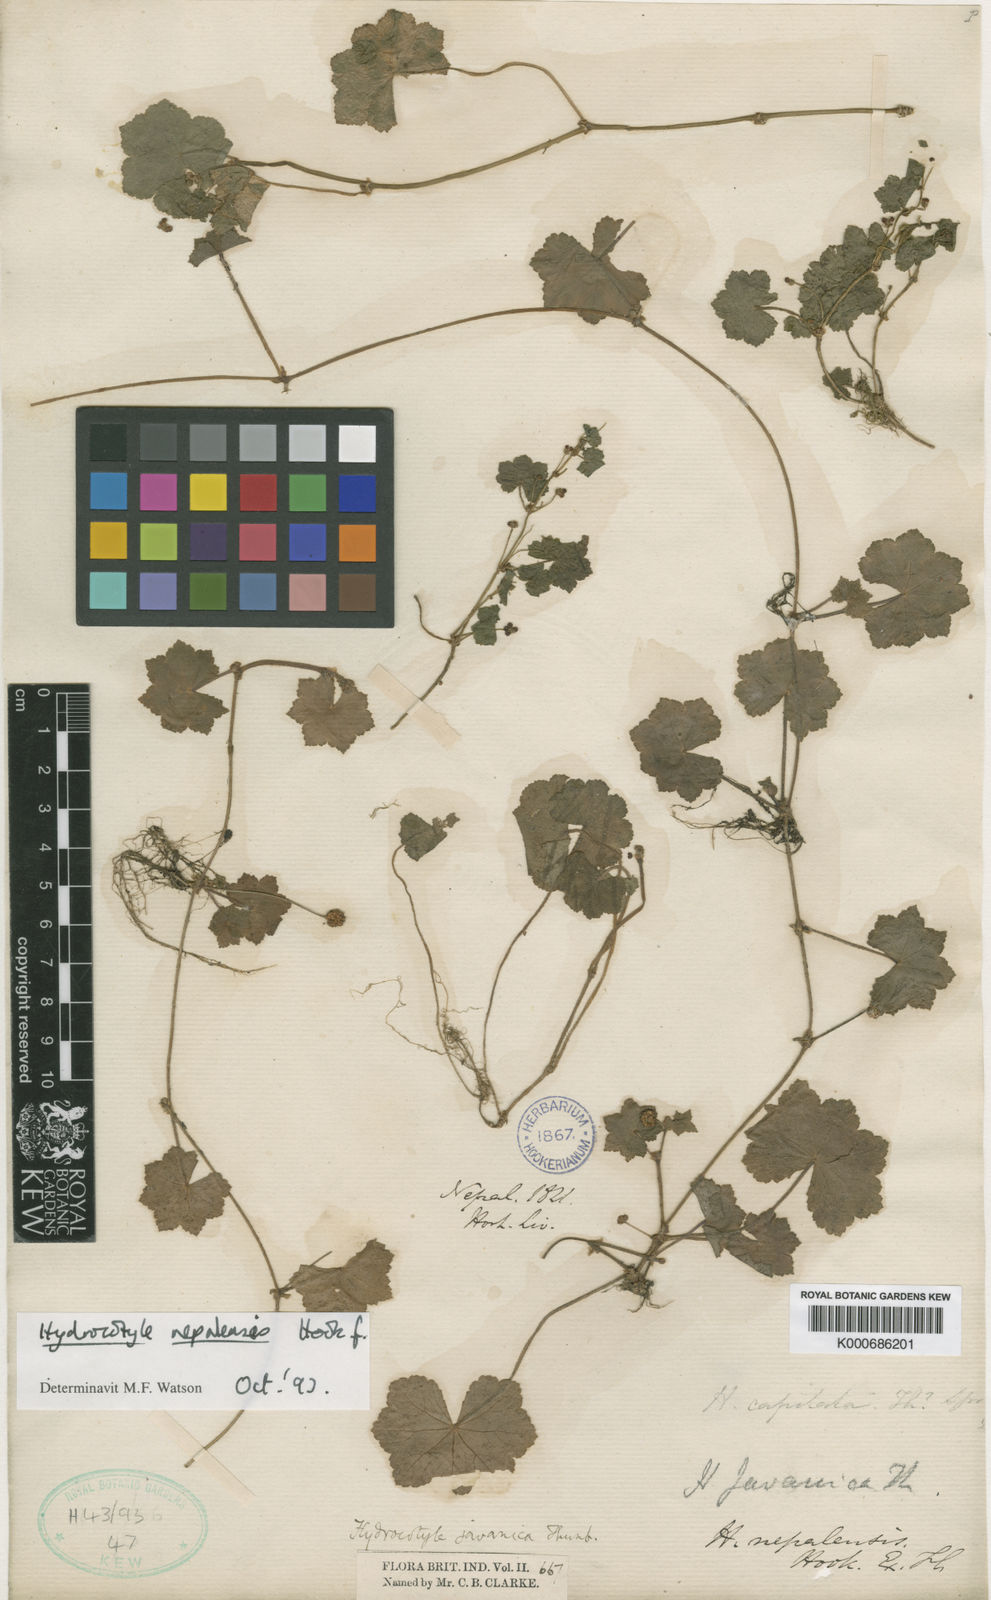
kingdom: Plantae
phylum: Tracheophyta
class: Magnoliopsida
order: Apiales
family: Araliaceae
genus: Hydrocotyle
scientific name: Hydrocotyle nepalensis
